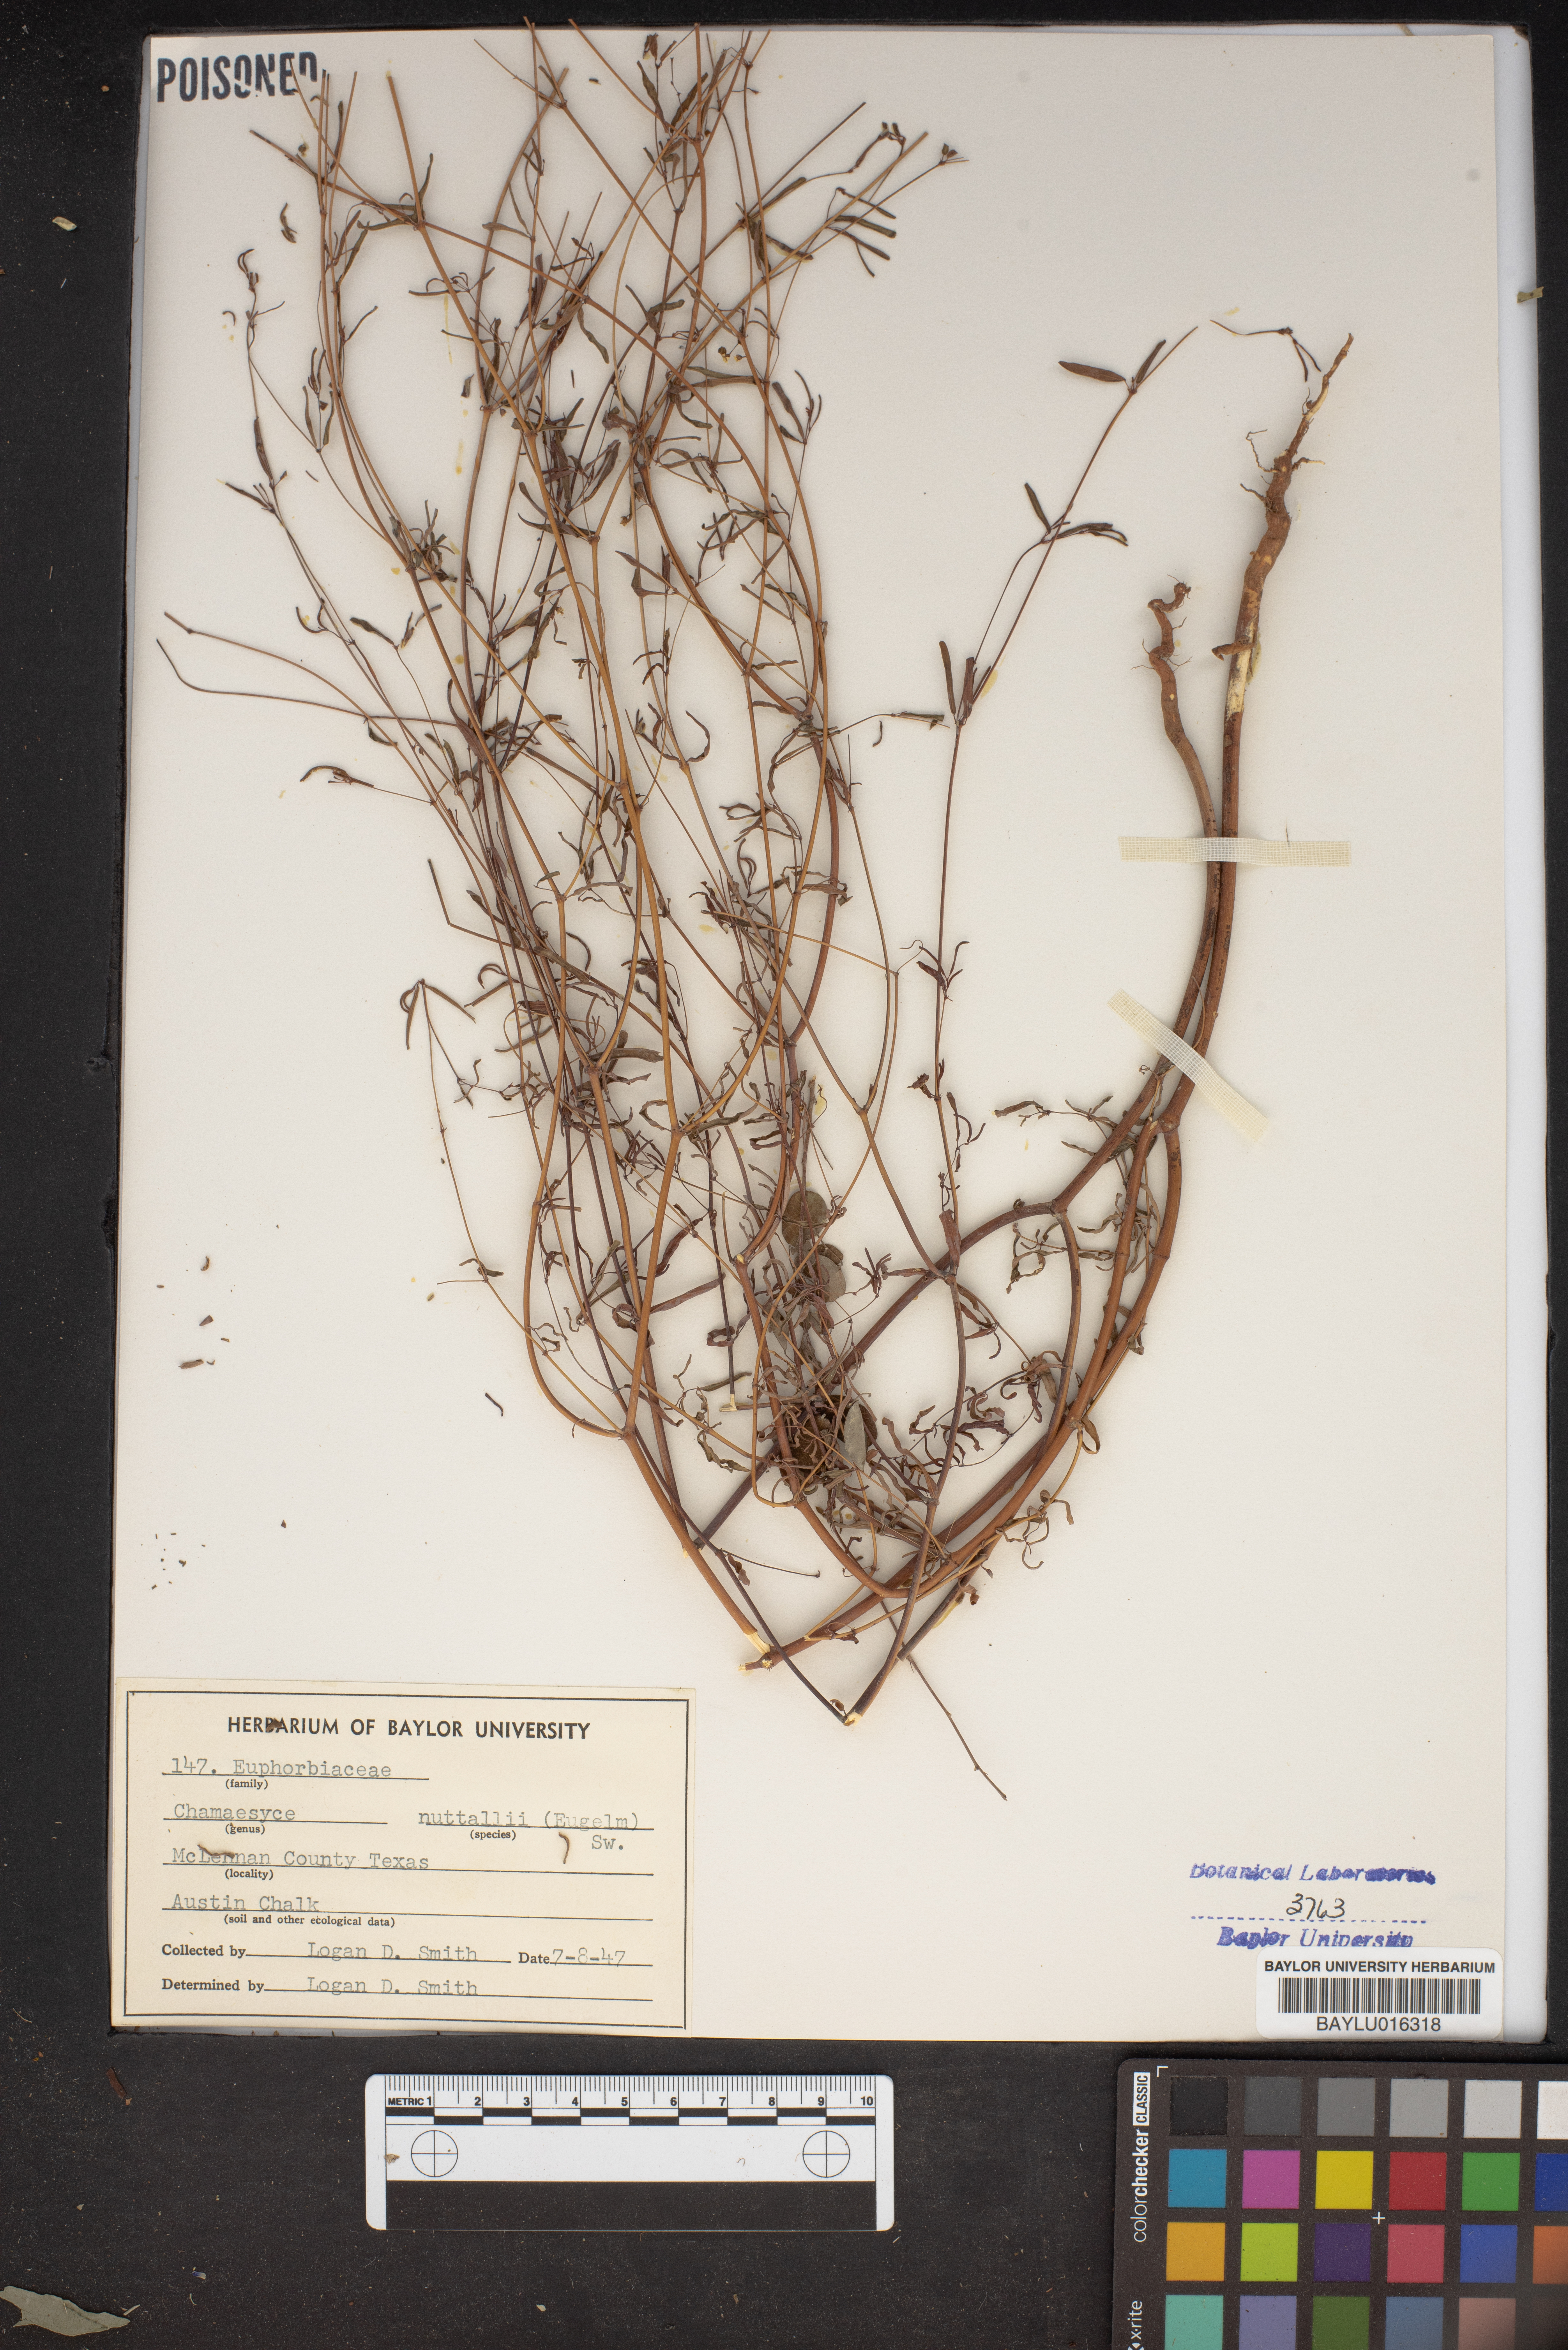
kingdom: Plantae
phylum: Tracheophyta
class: Magnoliopsida
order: Malpighiales
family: Euphorbiaceae
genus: Euphorbia
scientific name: Euphorbia missurica
